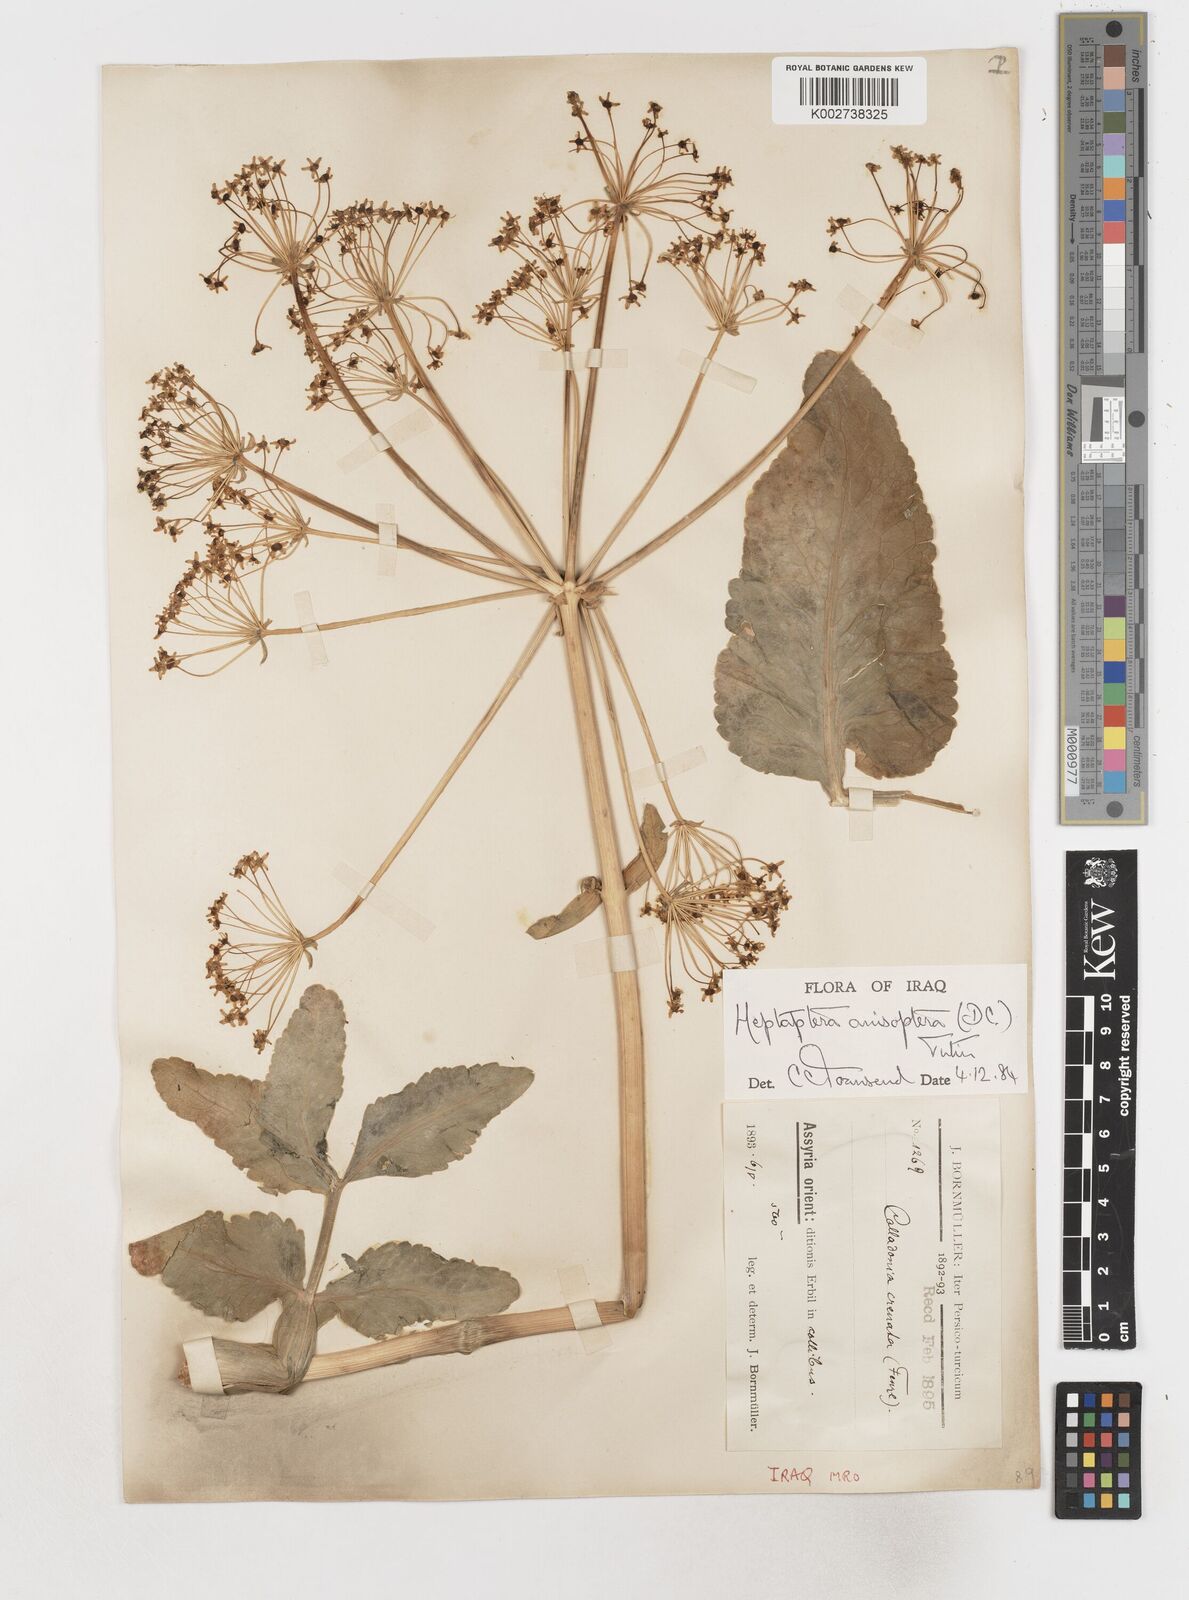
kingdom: Plantae
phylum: Tracheophyta
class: Magnoliopsida
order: Apiales
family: Apiaceae
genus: Heptaptera
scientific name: Heptaptera
